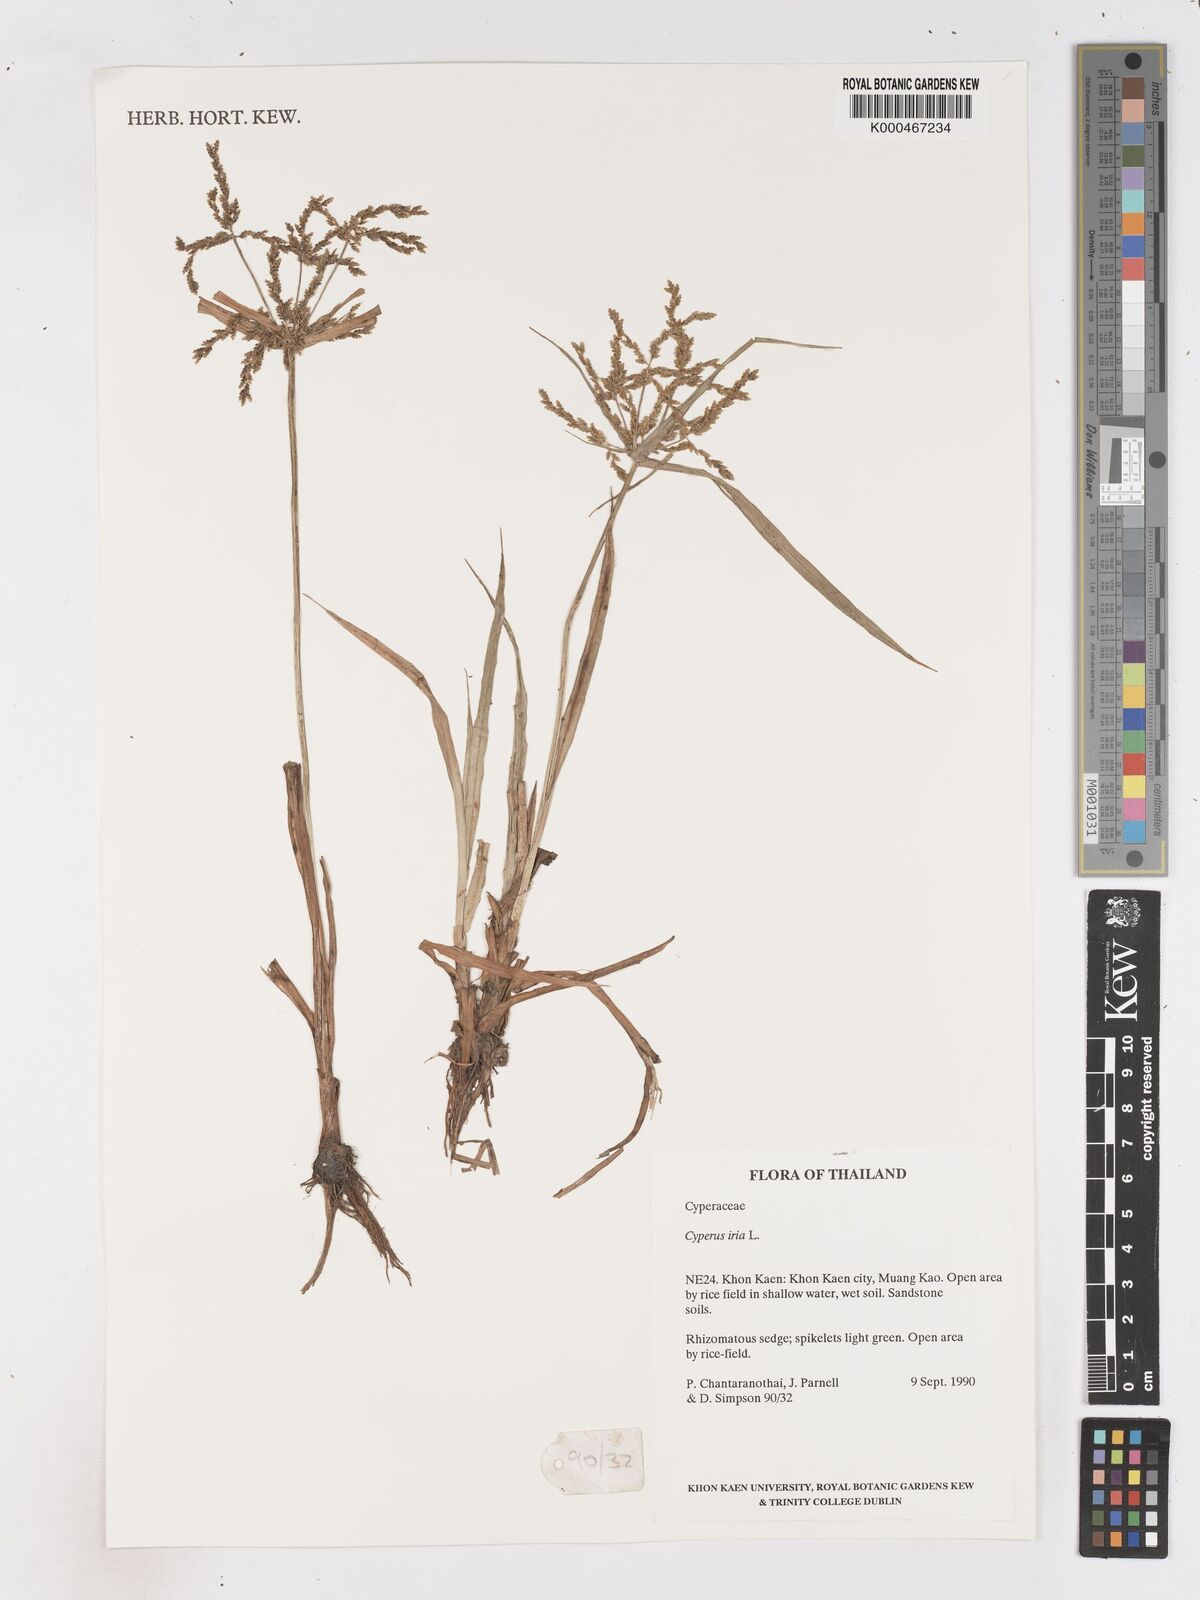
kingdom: Plantae
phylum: Tracheophyta
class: Liliopsida
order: Poales
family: Cyperaceae
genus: Cyperus
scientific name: Cyperus iria
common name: Ricefield flatsedge
